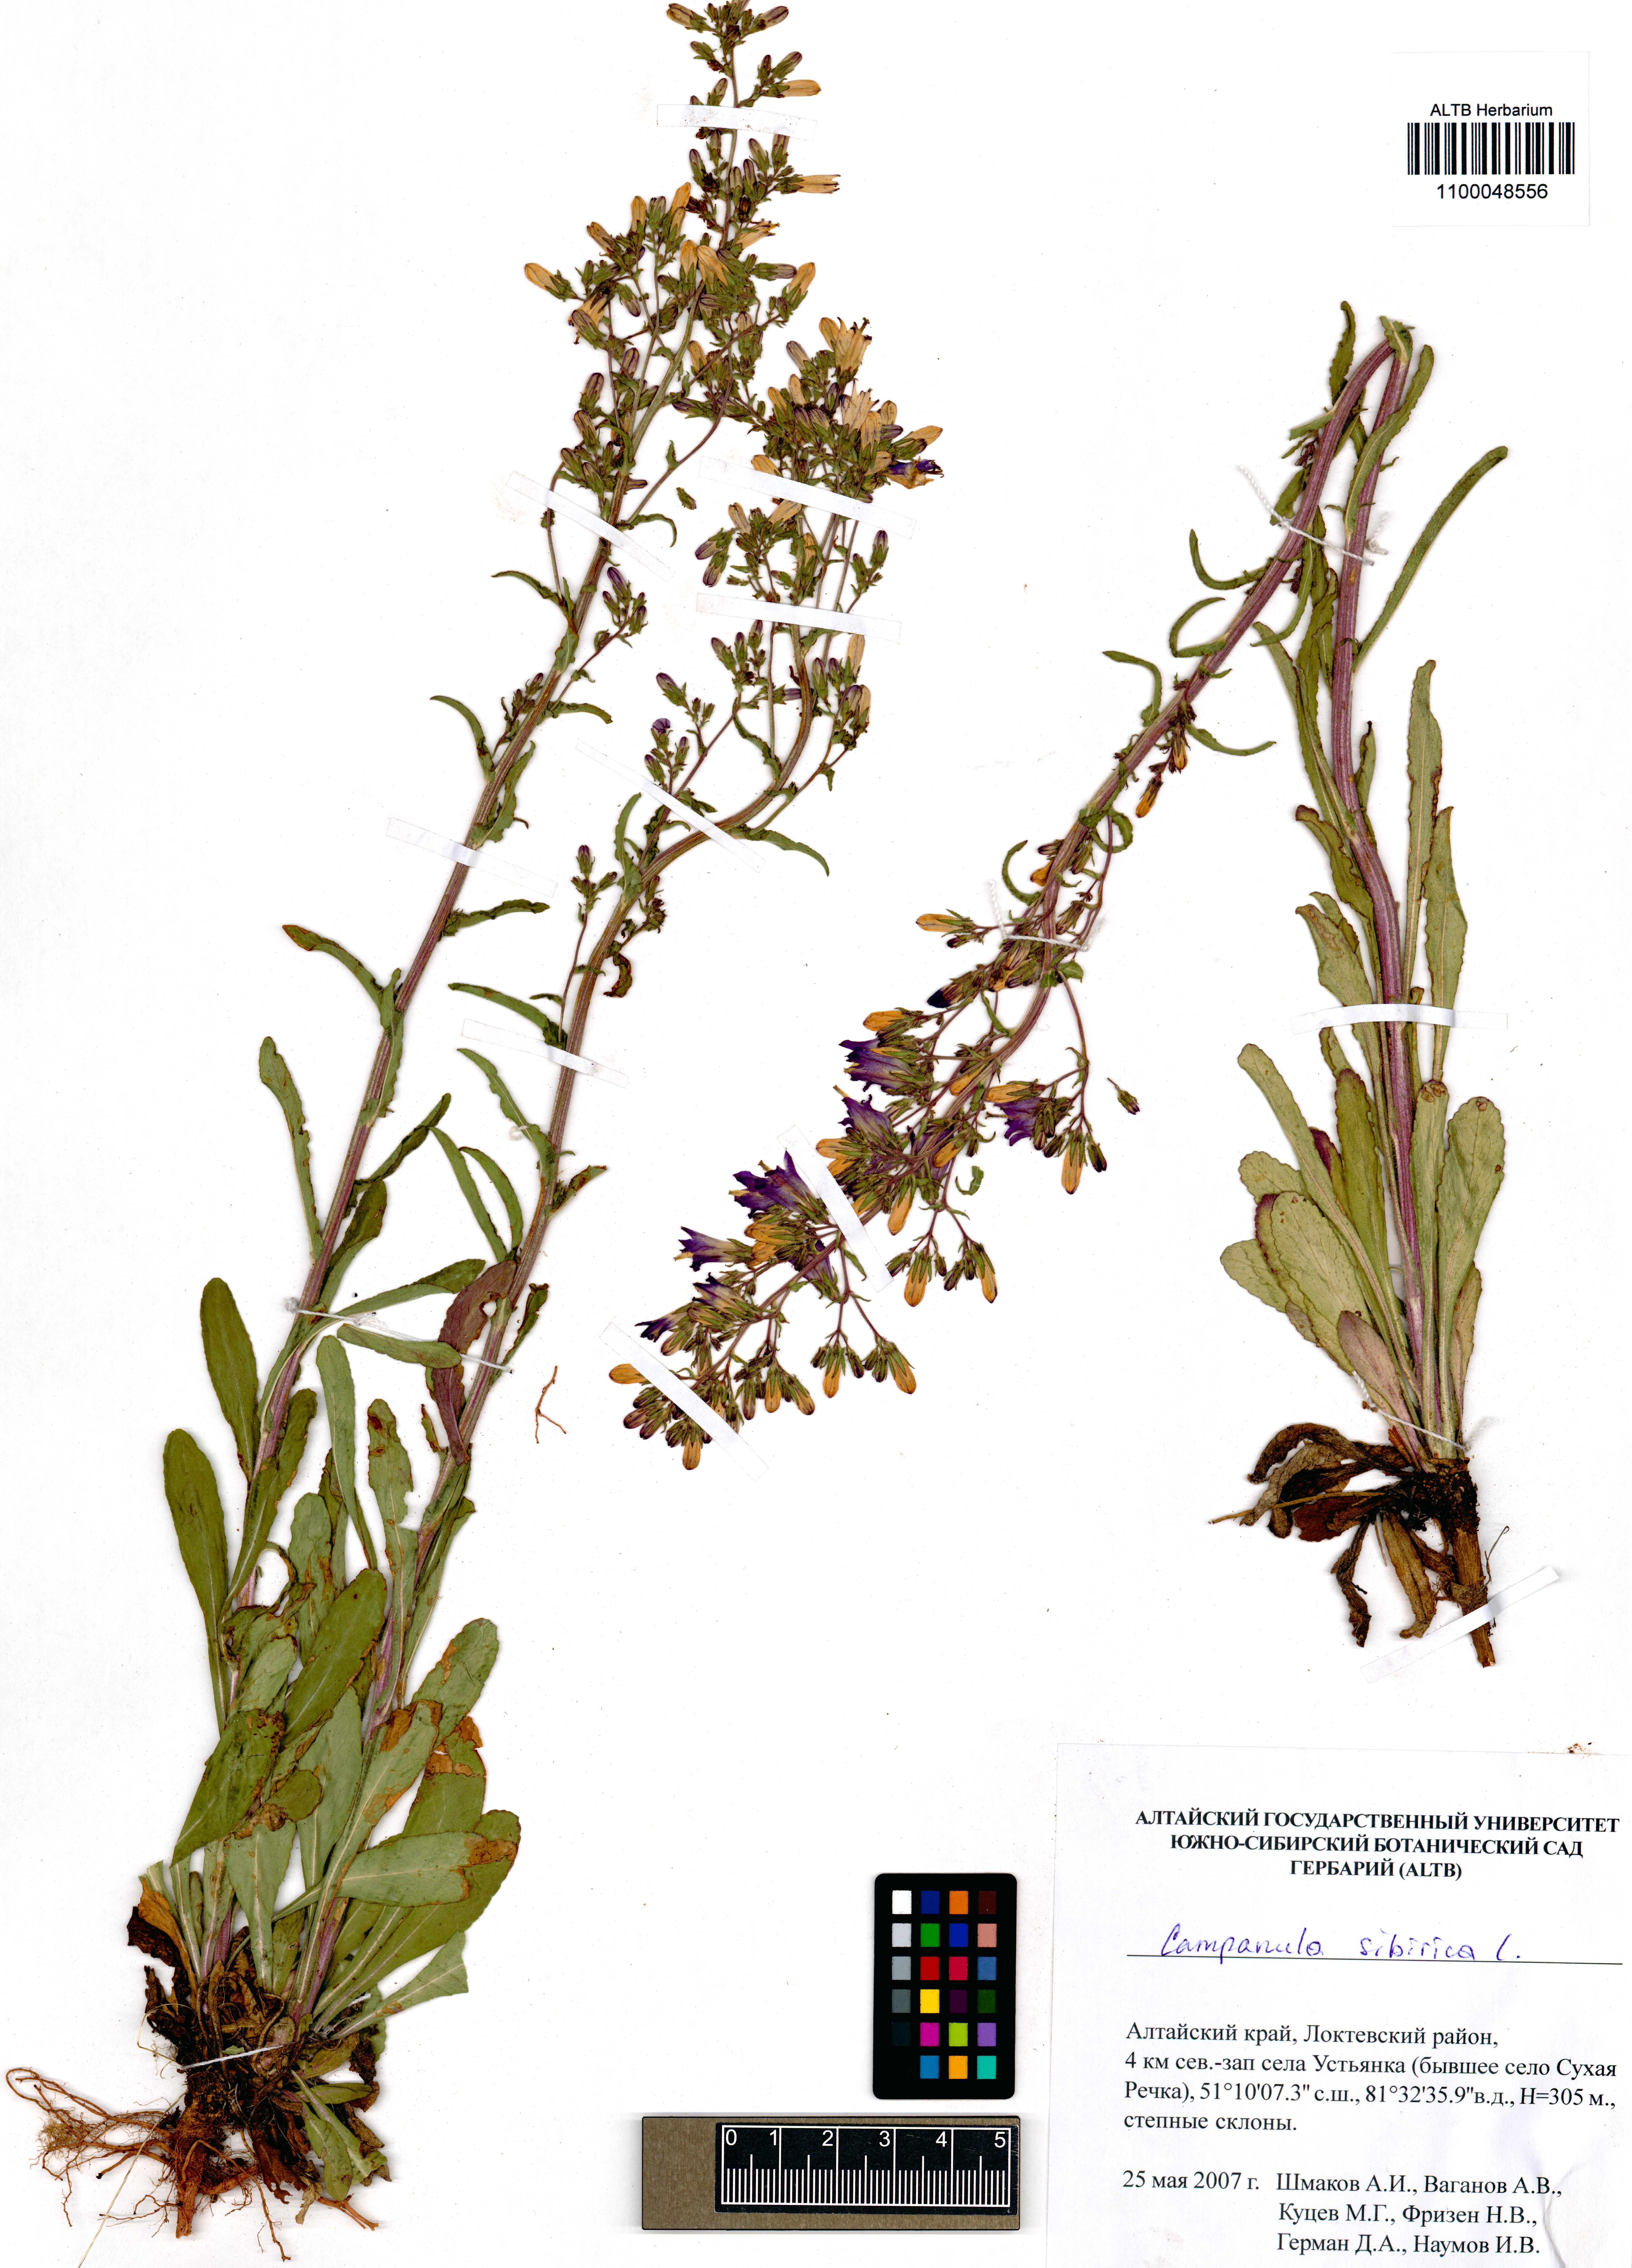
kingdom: Plantae
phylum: Tracheophyta
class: Magnoliopsida
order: Asterales
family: Campanulaceae
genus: Campanula
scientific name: Campanula sibirica
